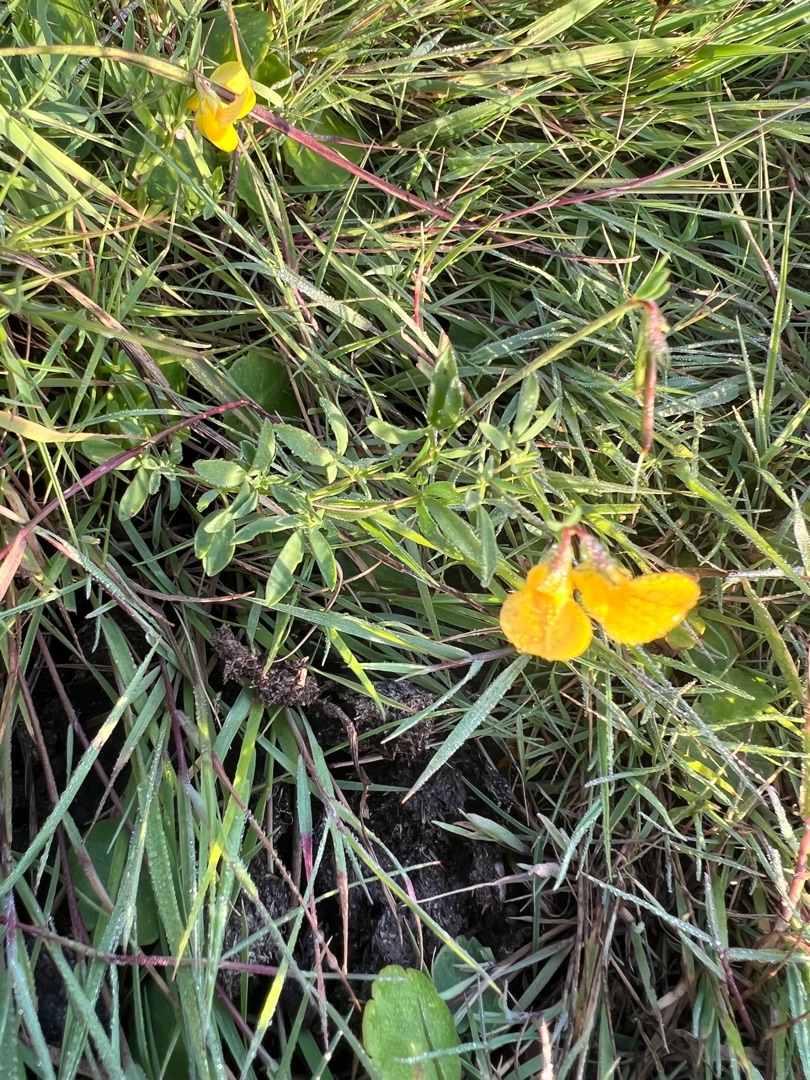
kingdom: Plantae
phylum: Tracheophyta
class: Magnoliopsida
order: Fabales
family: Fabaceae
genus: Lotus
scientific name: Lotus tenuis
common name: Smalbladet kællingetand
